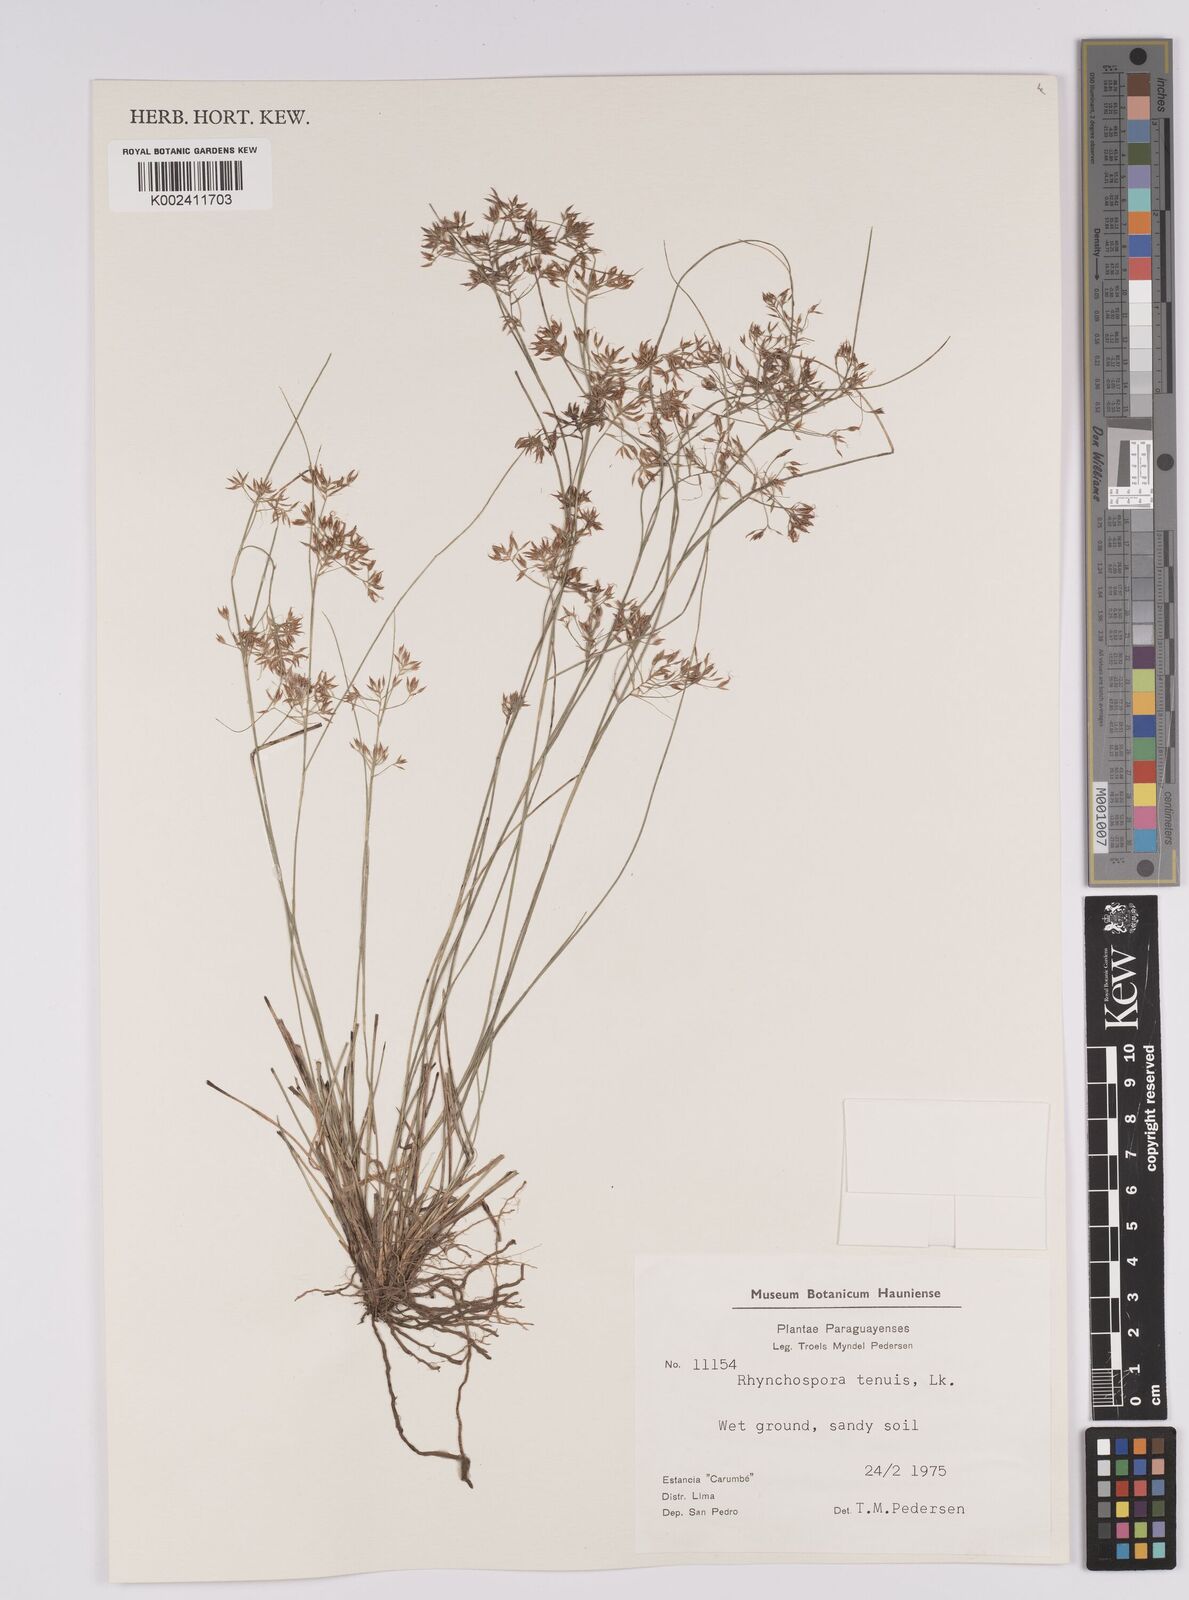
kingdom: Plantae
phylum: Tracheophyta
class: Liliopsida
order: Poales
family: Cyperaceae
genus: Rhynchospora
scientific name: Rhynchospora tenuis
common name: Quill beaksedge
